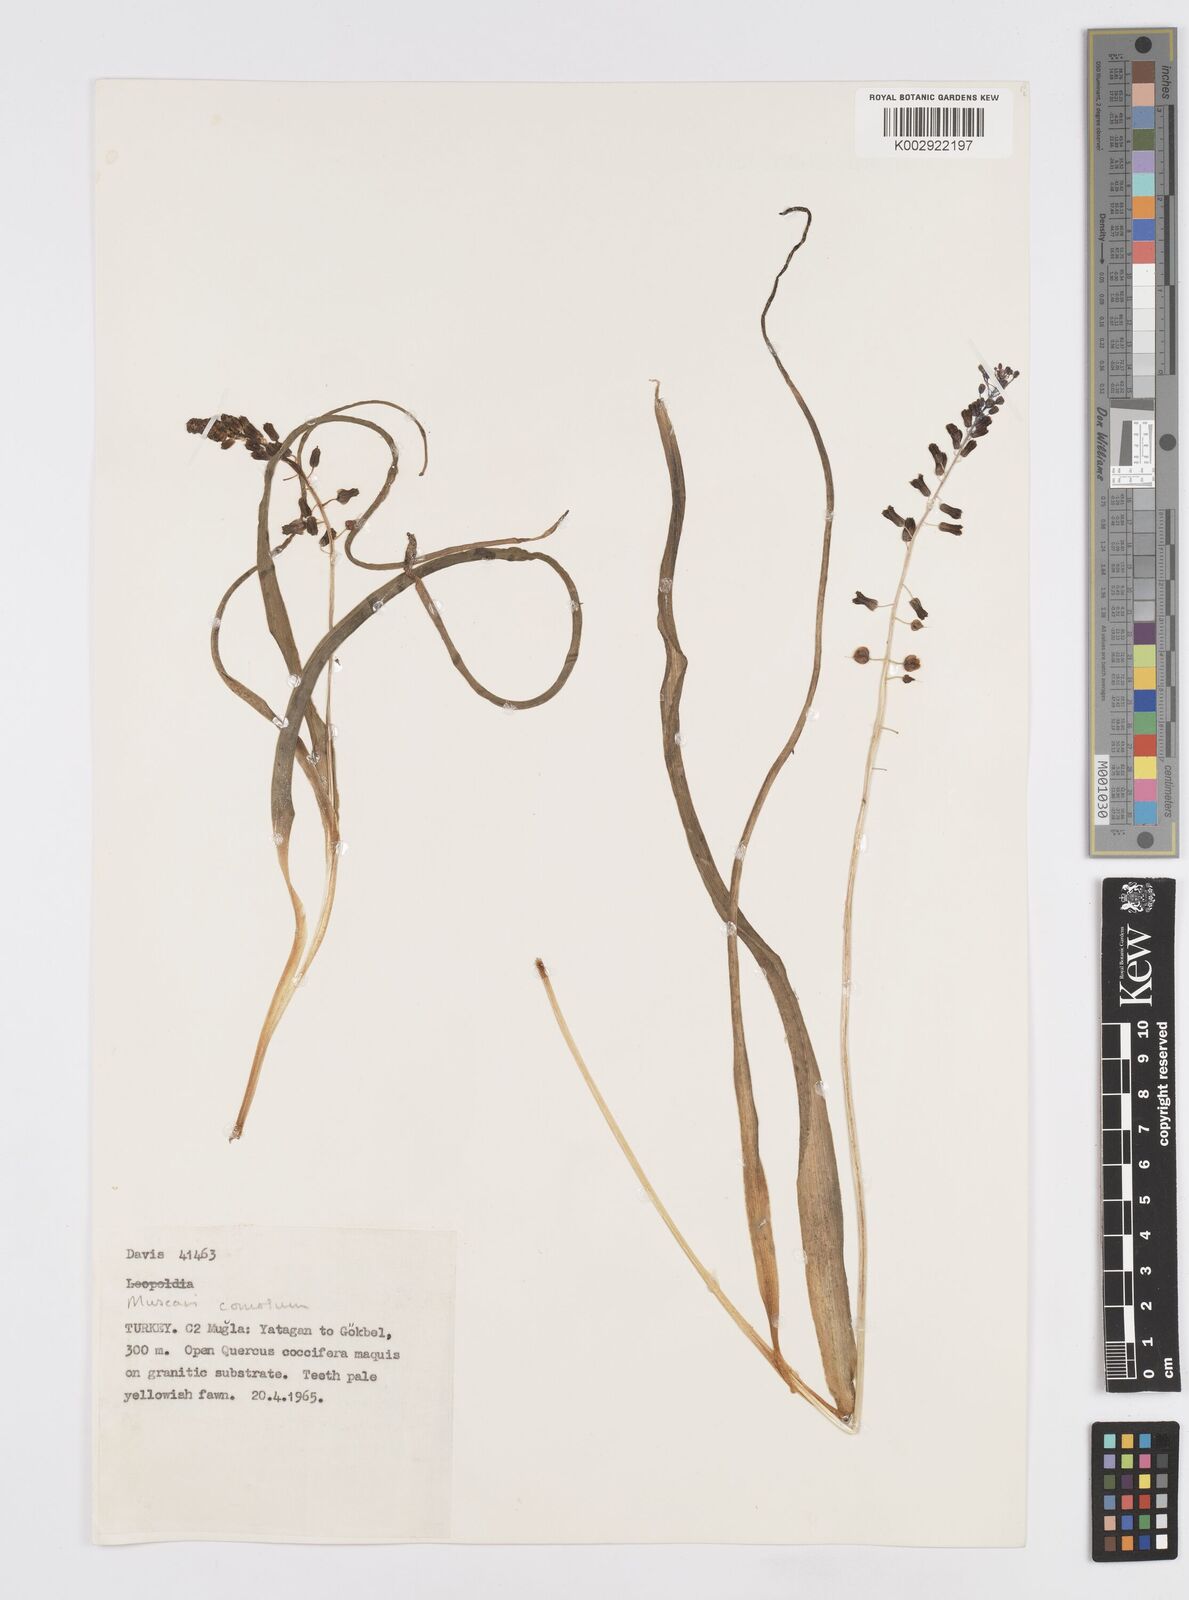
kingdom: Plantae
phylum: Tracheophyta
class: Liliopsida
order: Asparagales
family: Asparagaceae
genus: Muscari
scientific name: Muscari comosum
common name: Tassel hyacinth
